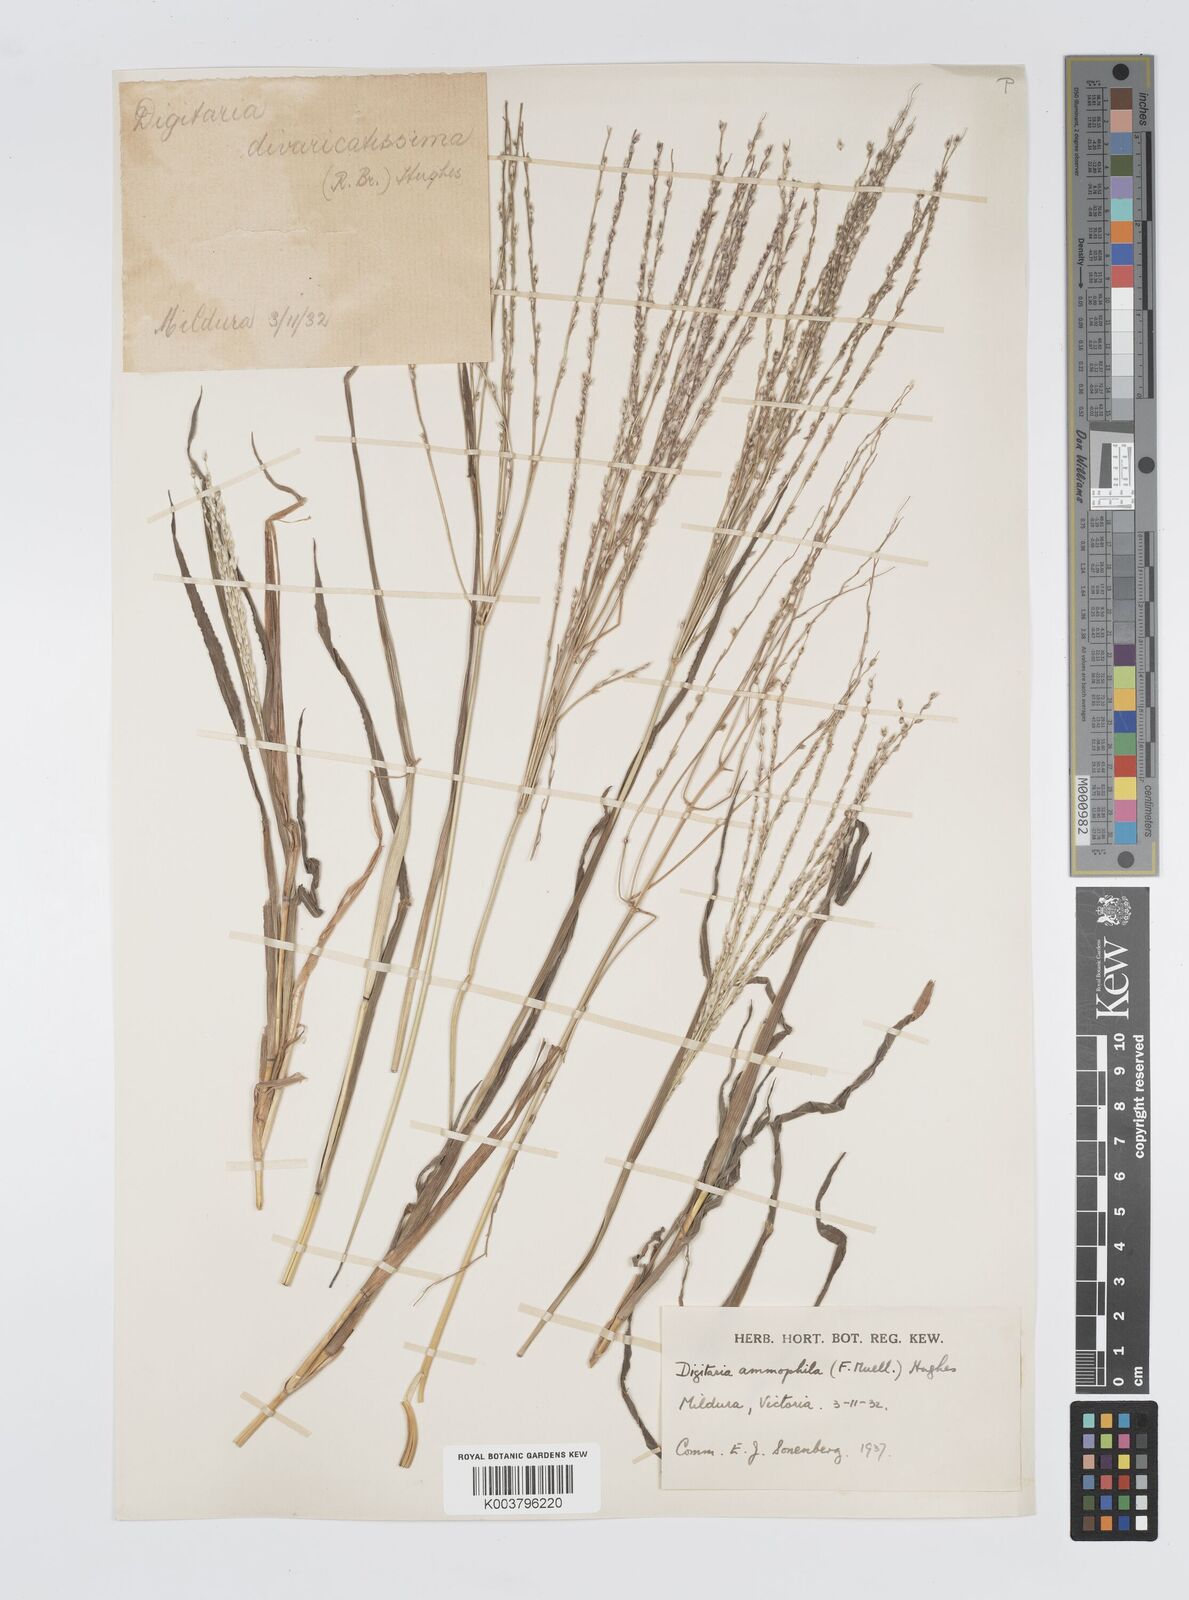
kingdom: Plantae
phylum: Tracheophyta
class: Liliopsida
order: Poales
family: Poaceae
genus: Digitaria
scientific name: Digitaria ammophila
